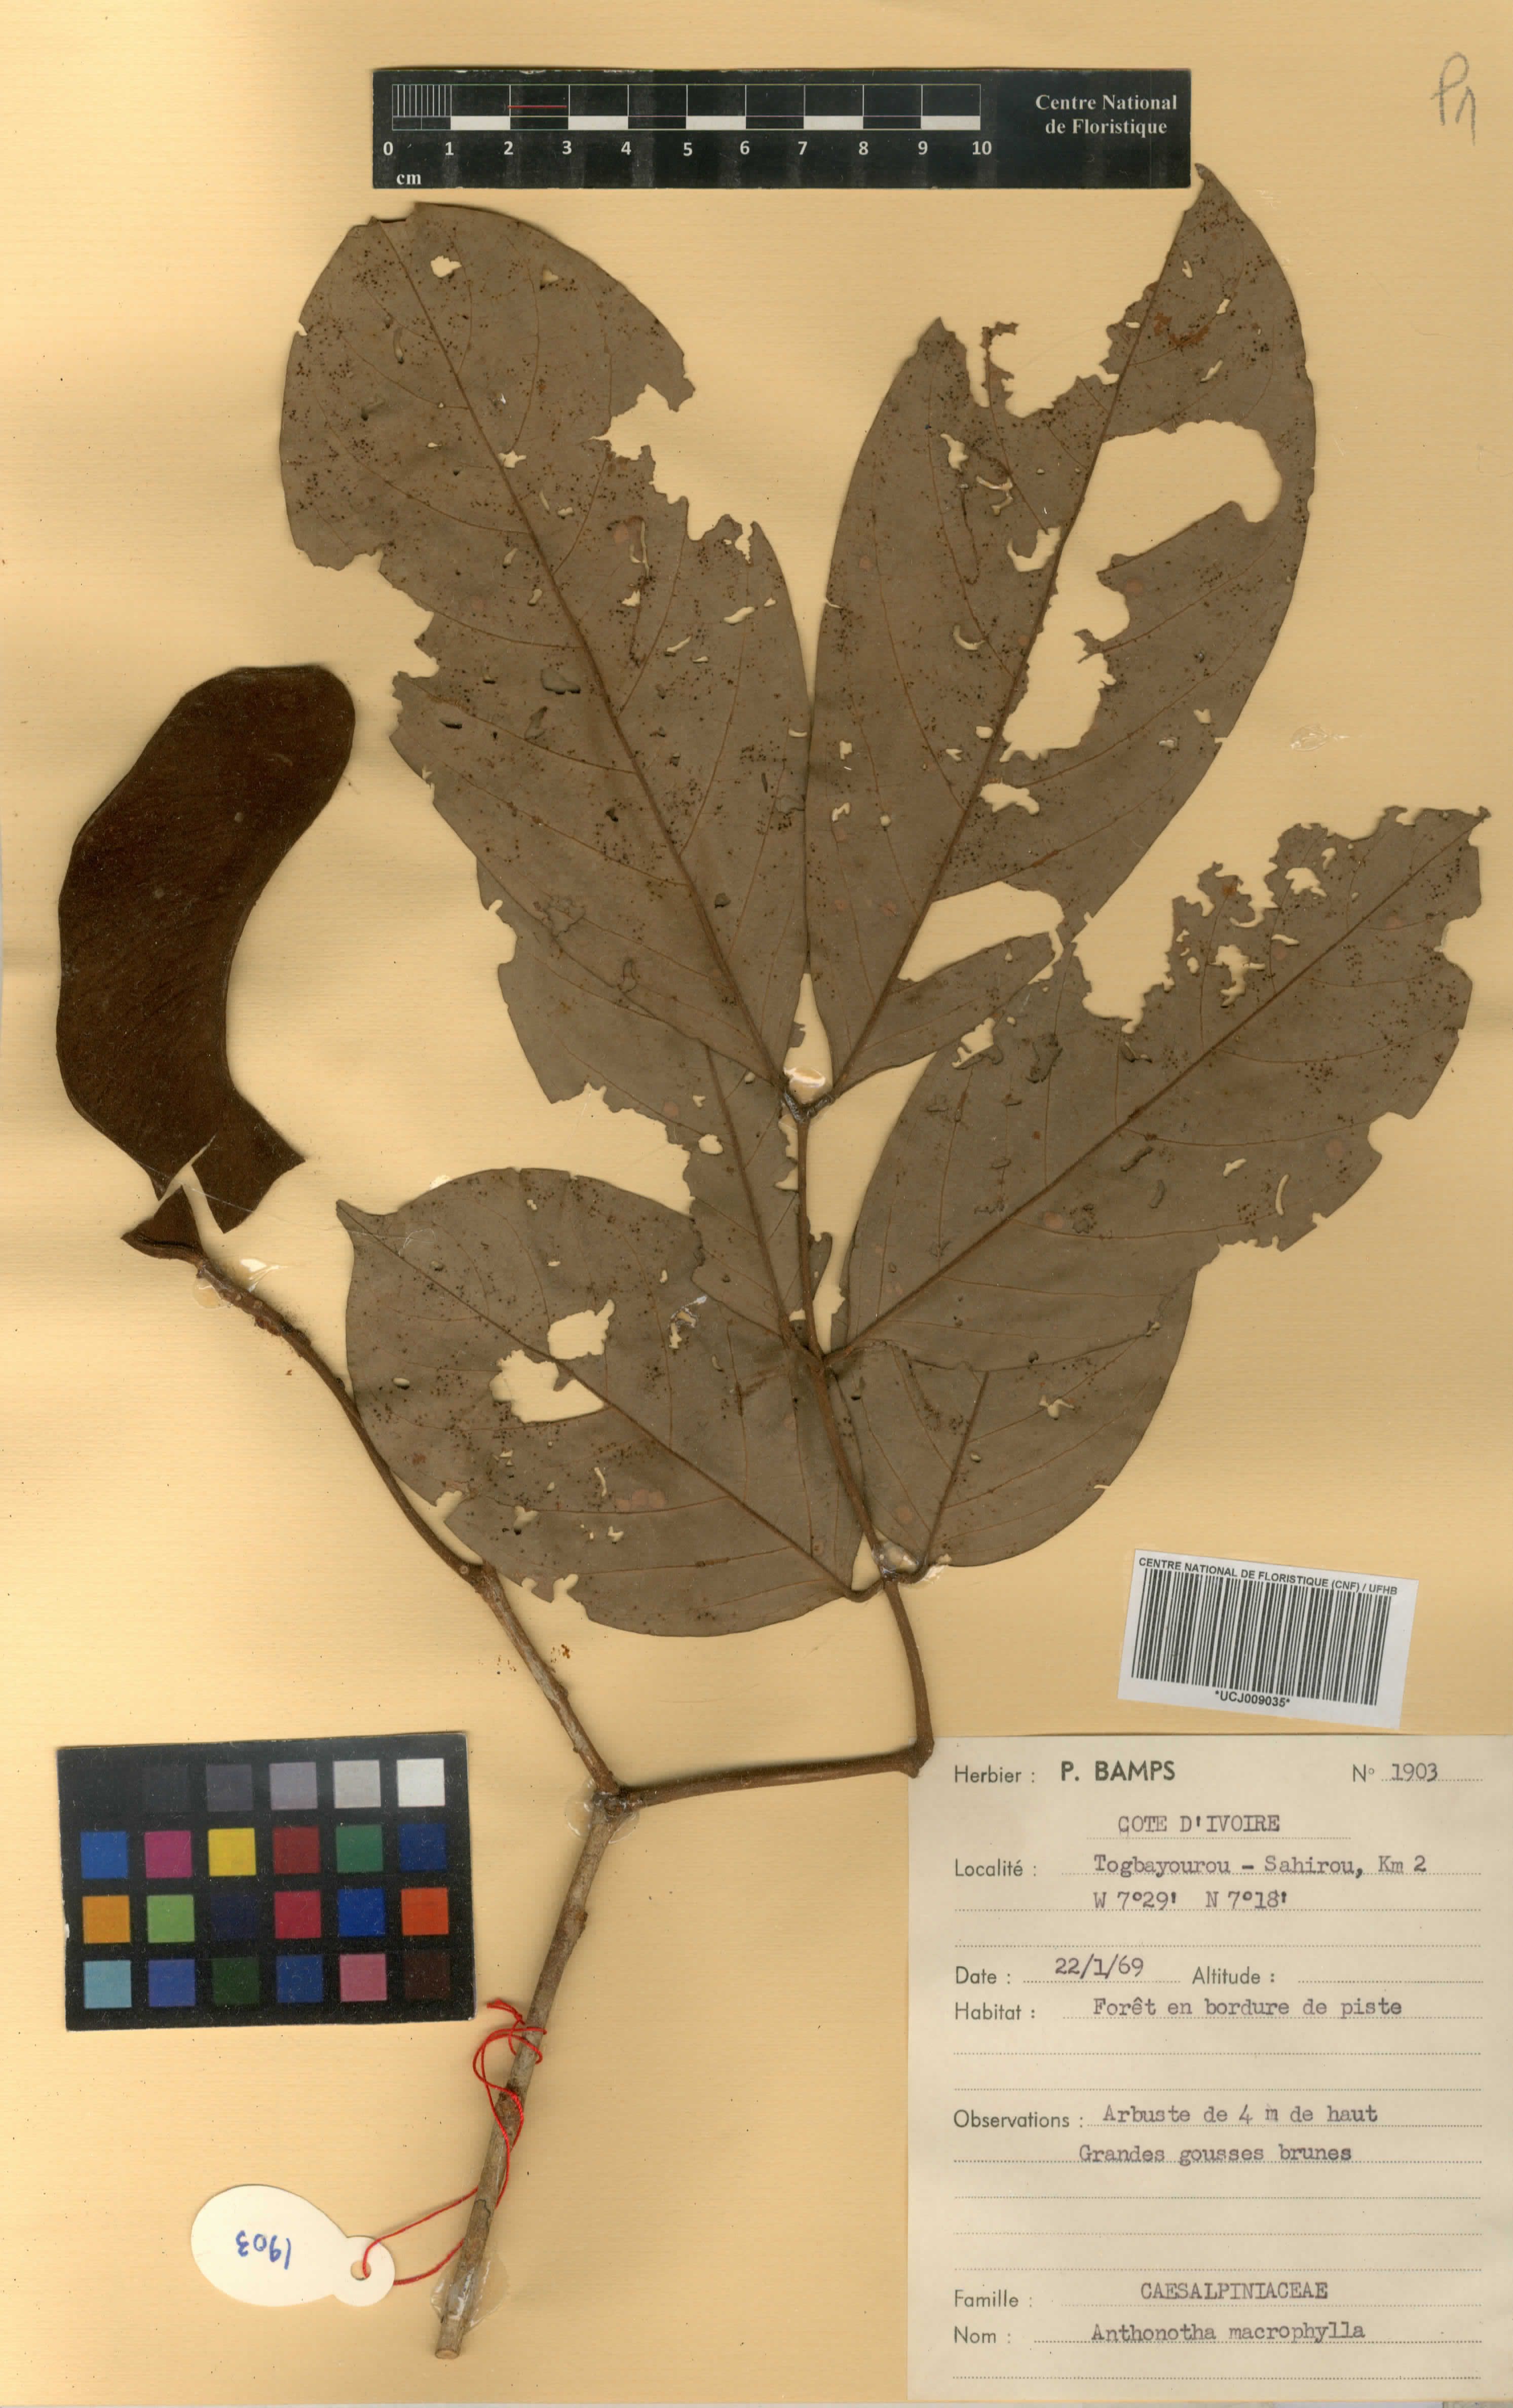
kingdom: Plantae
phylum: Tracheophyta
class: Magnoliopsida
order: Fabales
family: Fabaceae
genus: Anthonotha
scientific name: Anthonotha macrophylla
